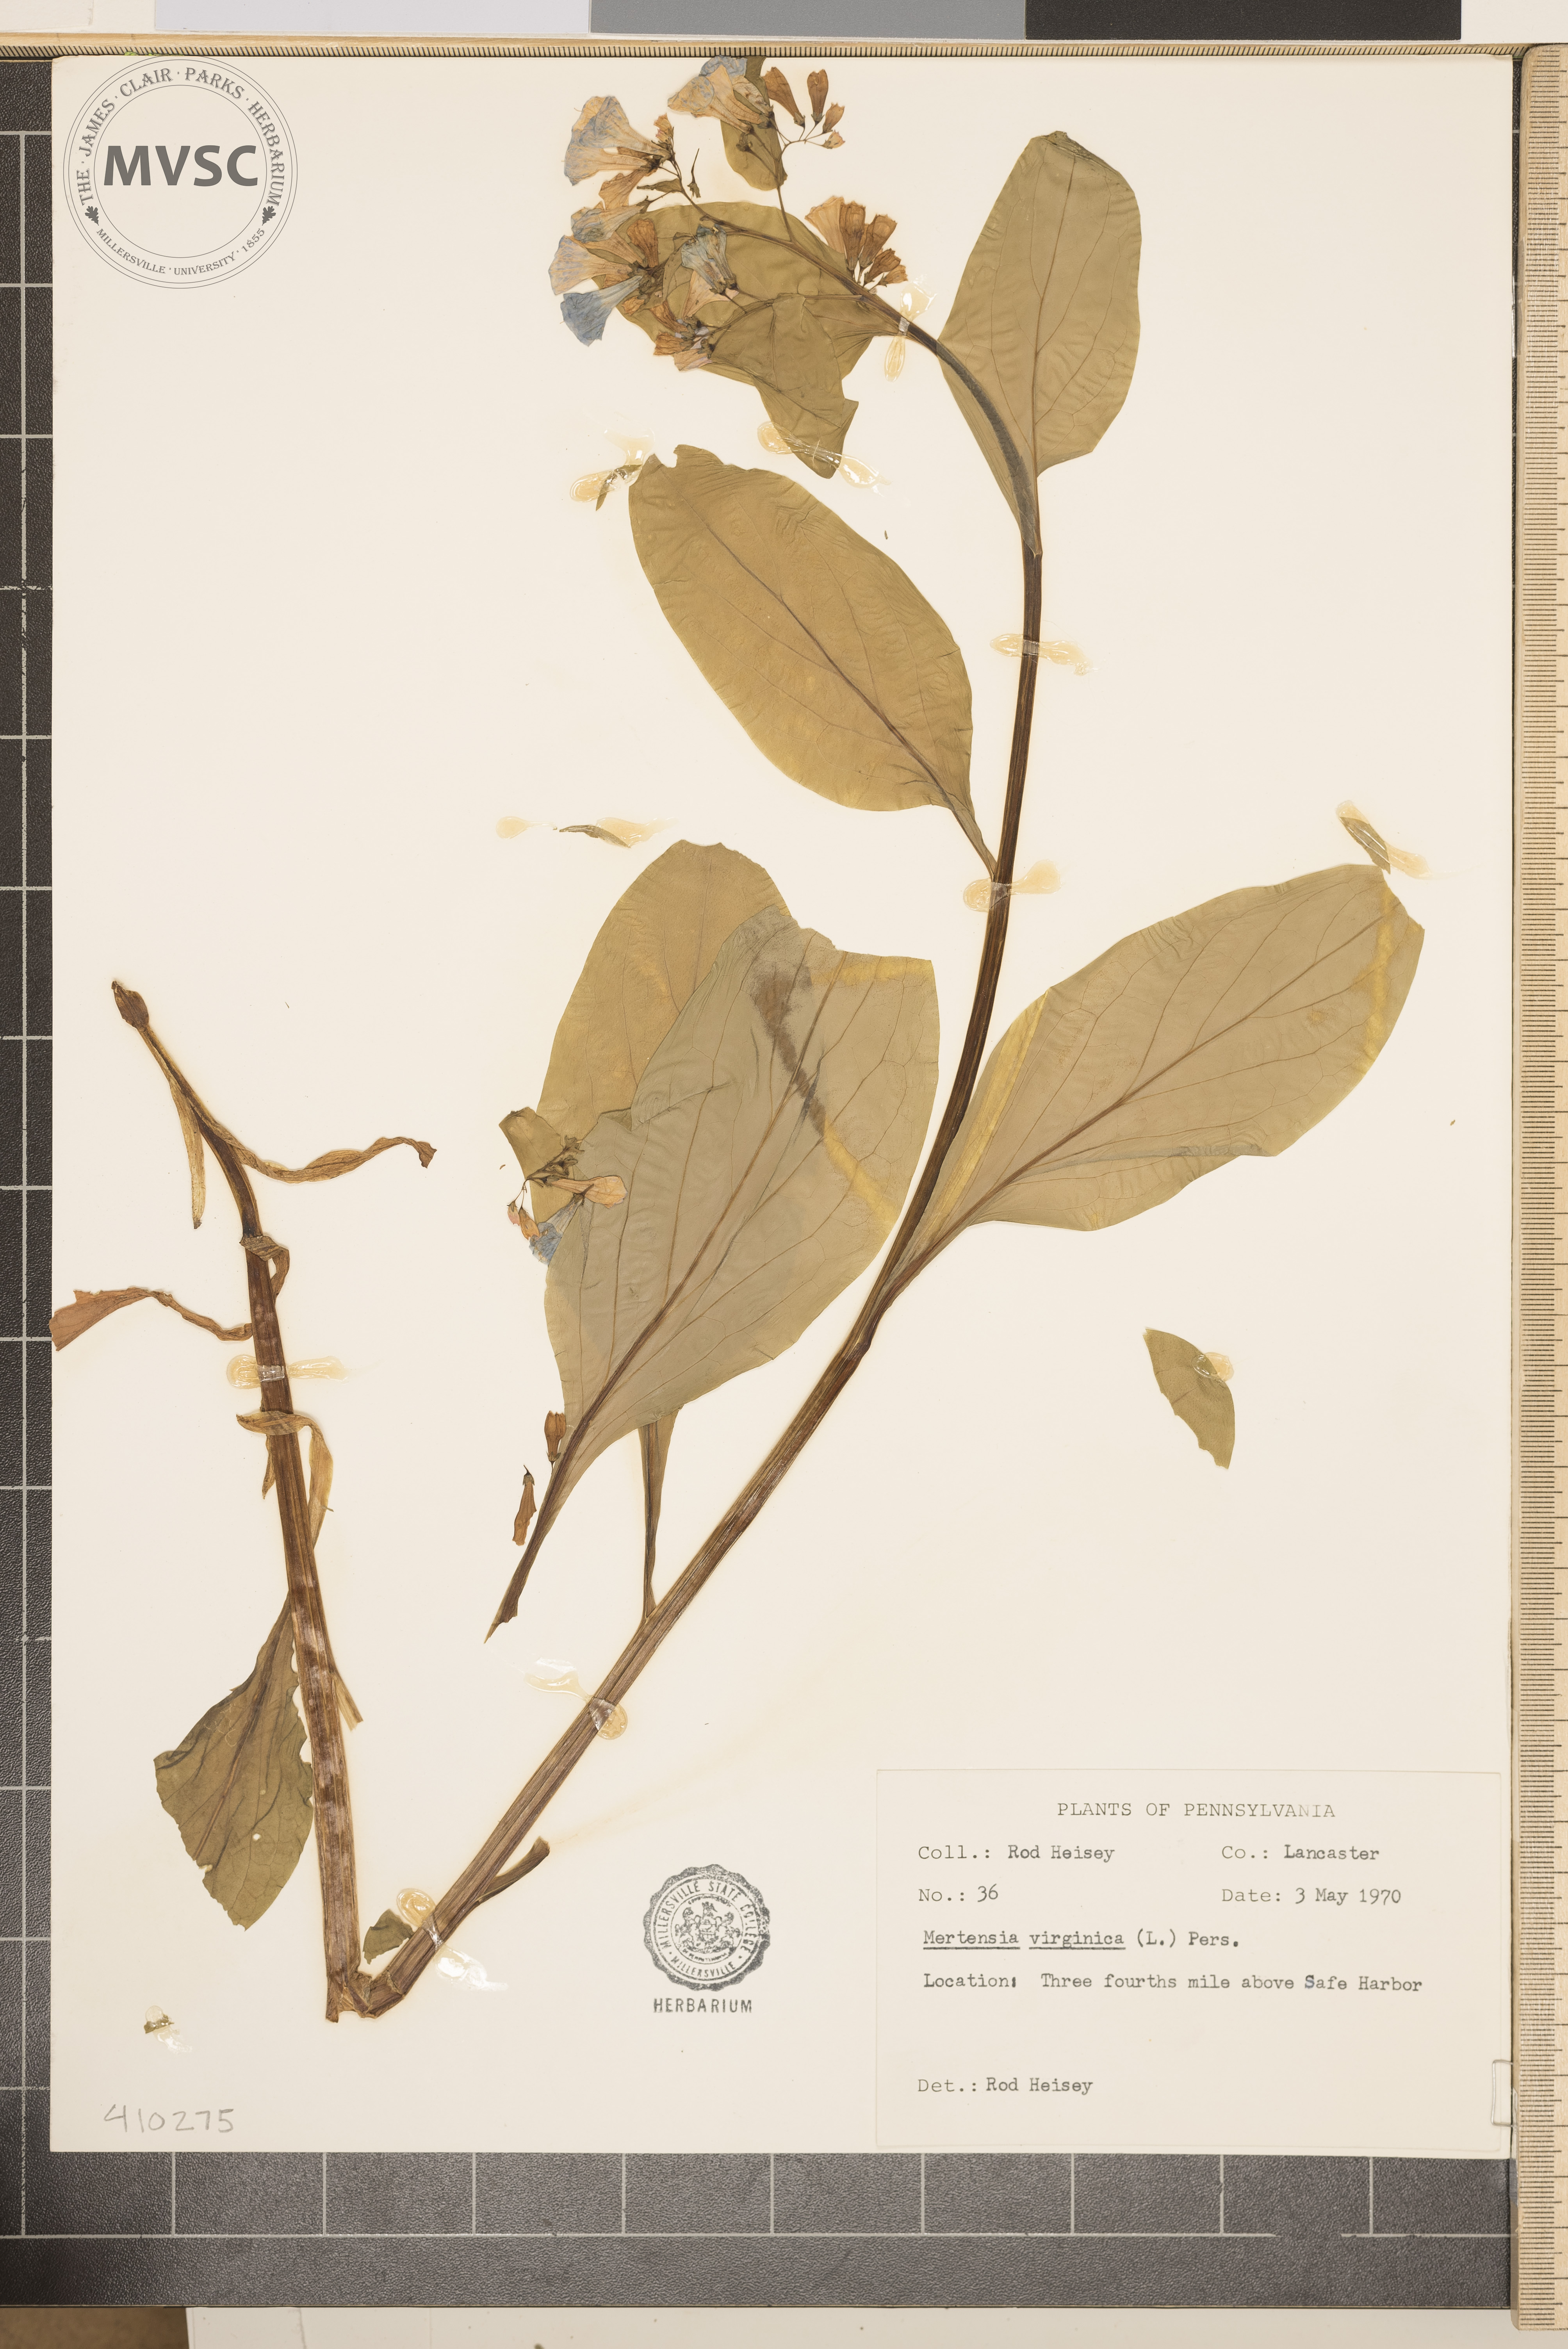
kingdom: Plantae
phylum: Tracheophyta
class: Magnoliopsida
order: Boraginales
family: Boraginaceae
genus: Mertensia
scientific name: Mertensia virginica
